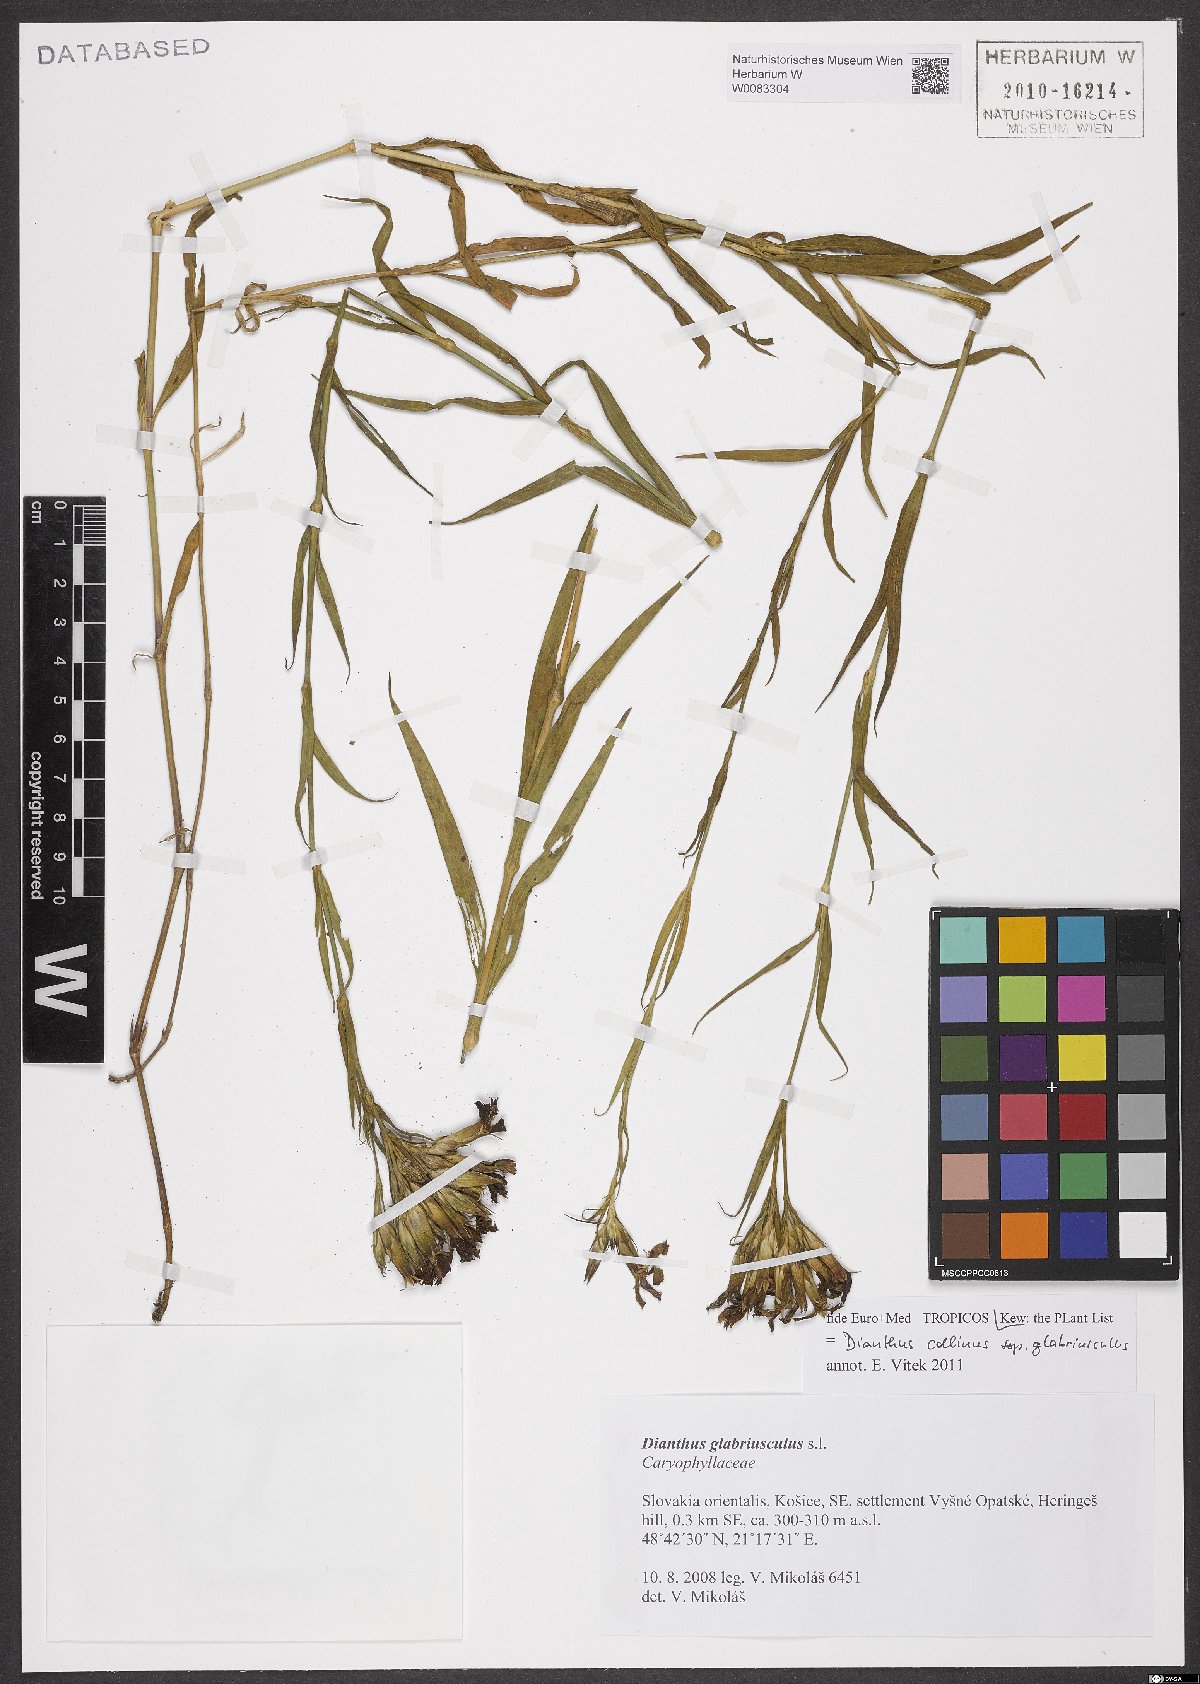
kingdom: Plantae
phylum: Tracheophyta
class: Magnoliopsida
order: Caryophyllales
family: Caryophyllaceae
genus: Dianthus
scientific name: Dianthus collinus
